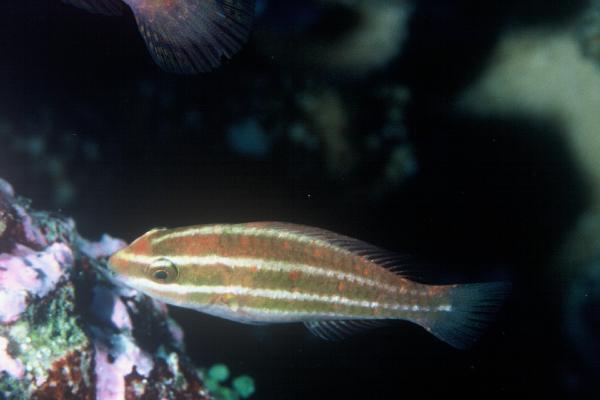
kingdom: Animalia
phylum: Chordata
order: Perciformes
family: Scaridae
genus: Scarus
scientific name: Scarus tricolor
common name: Tricolour parrotfish
